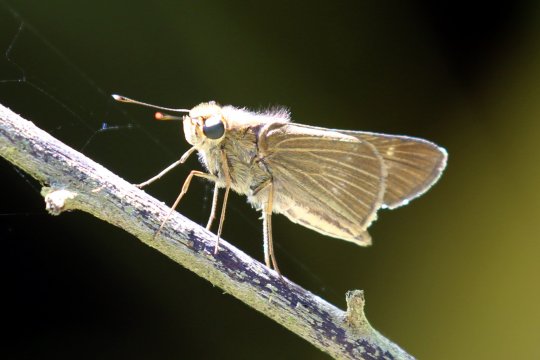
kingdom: Animalia
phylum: Arthropoda
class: Insecta
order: Lepidoptera
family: Hesperiidae
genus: Turesis
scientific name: Turesis lucas
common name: Purple-washed Skipper
